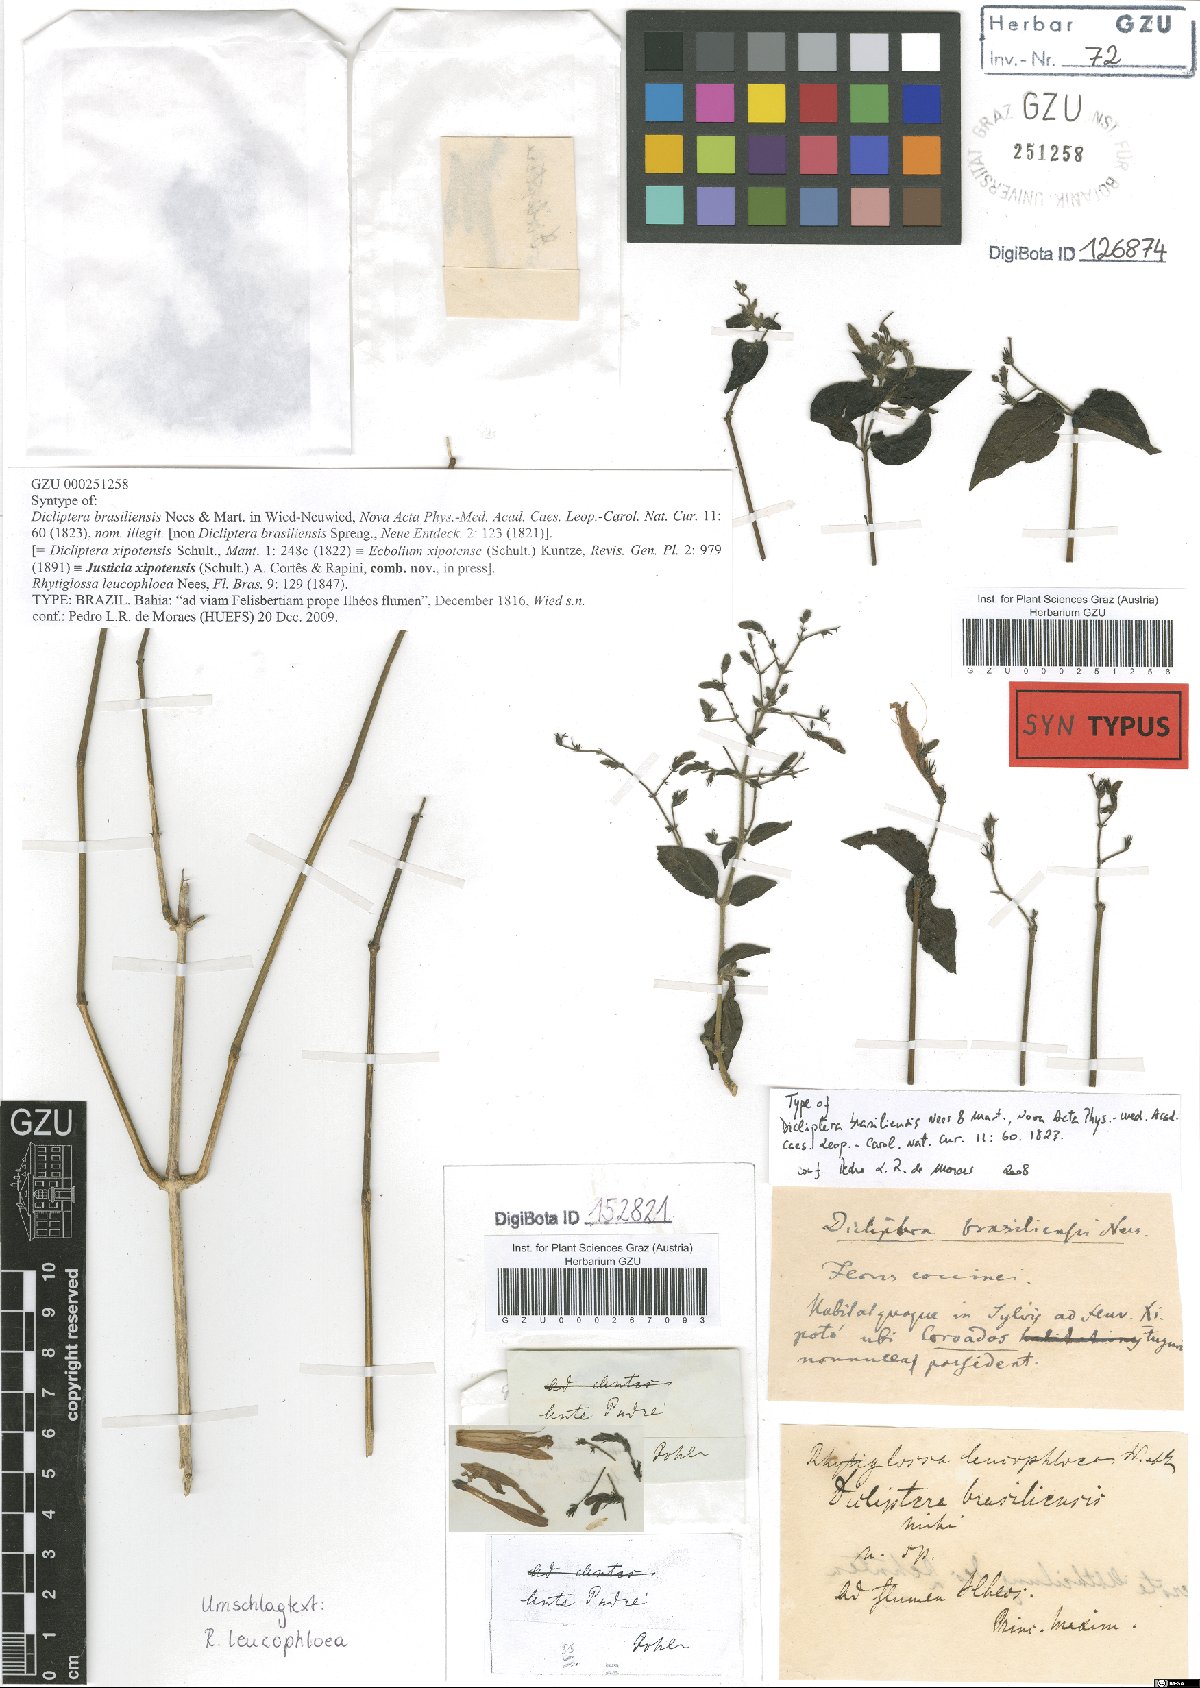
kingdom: Plantae
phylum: Tracheophyta
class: Magnoliopsida
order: Lamiales
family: Acanthaceae
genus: Justicia
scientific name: Justicia xipotensis
